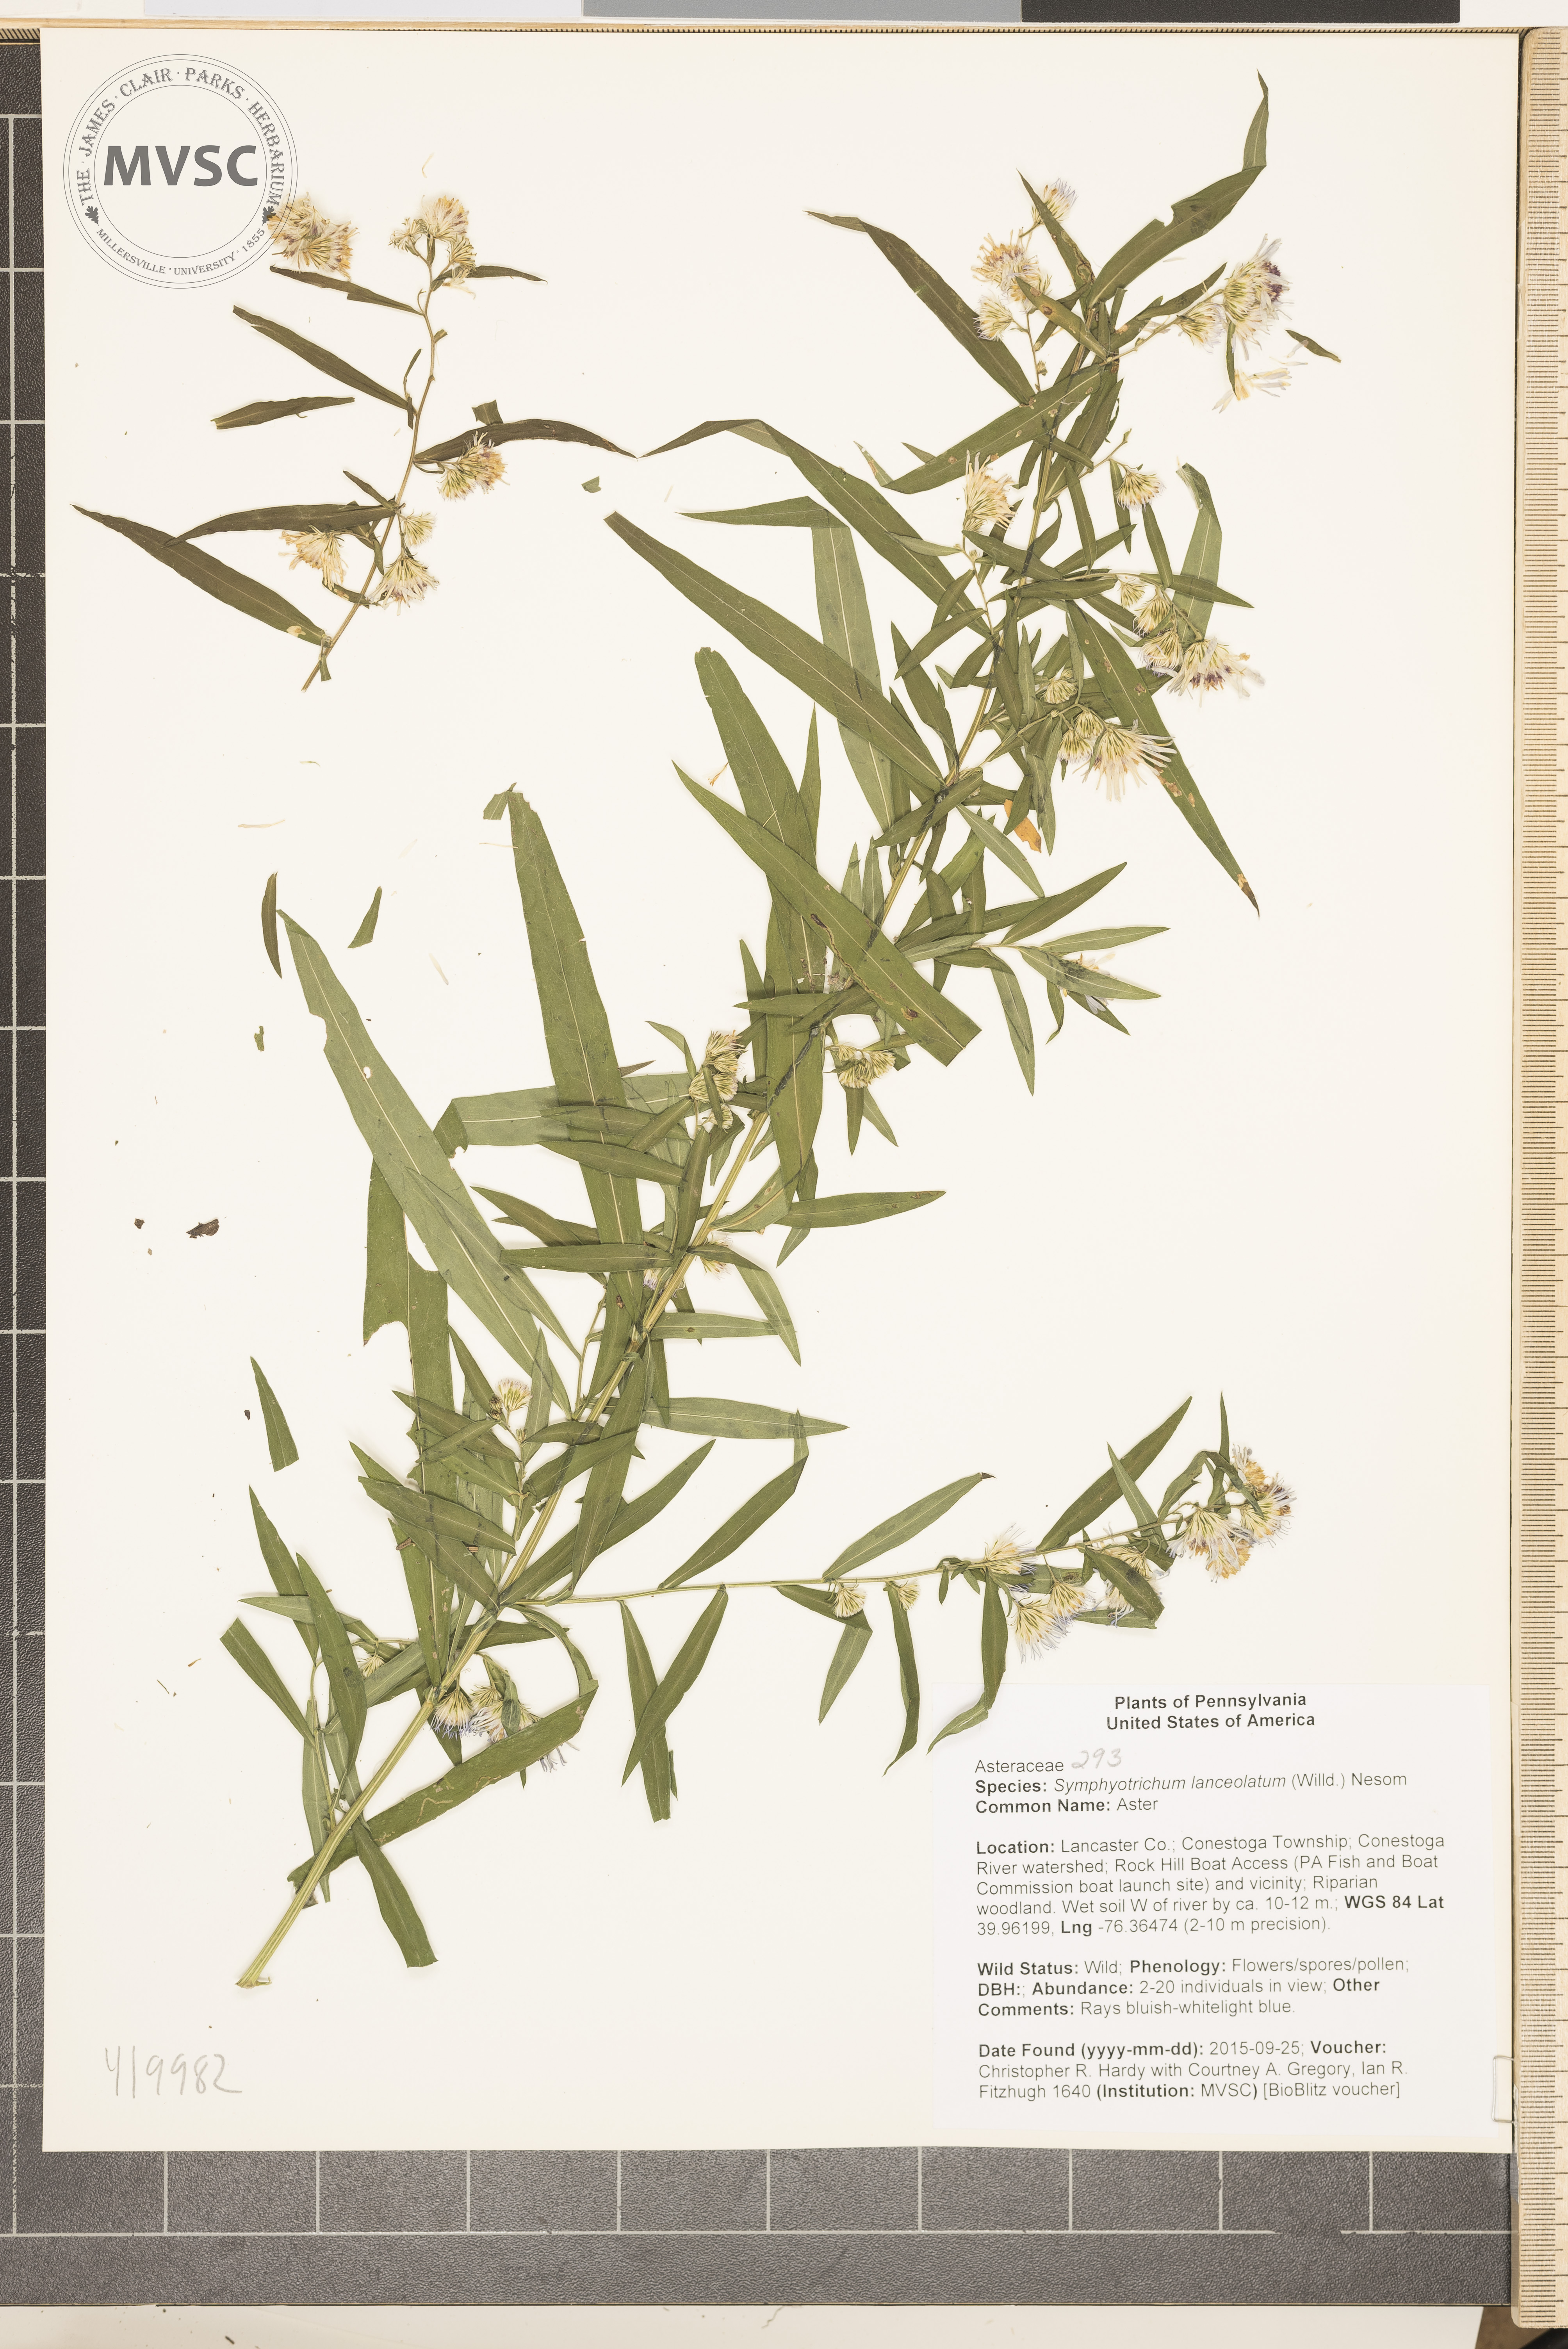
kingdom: Plantae
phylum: Tracheophyta
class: Magnoliopsida
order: Asterales
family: Asteraceae
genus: Symphyotrichum
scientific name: Symphyotrichum lanceolatum
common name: Aster
